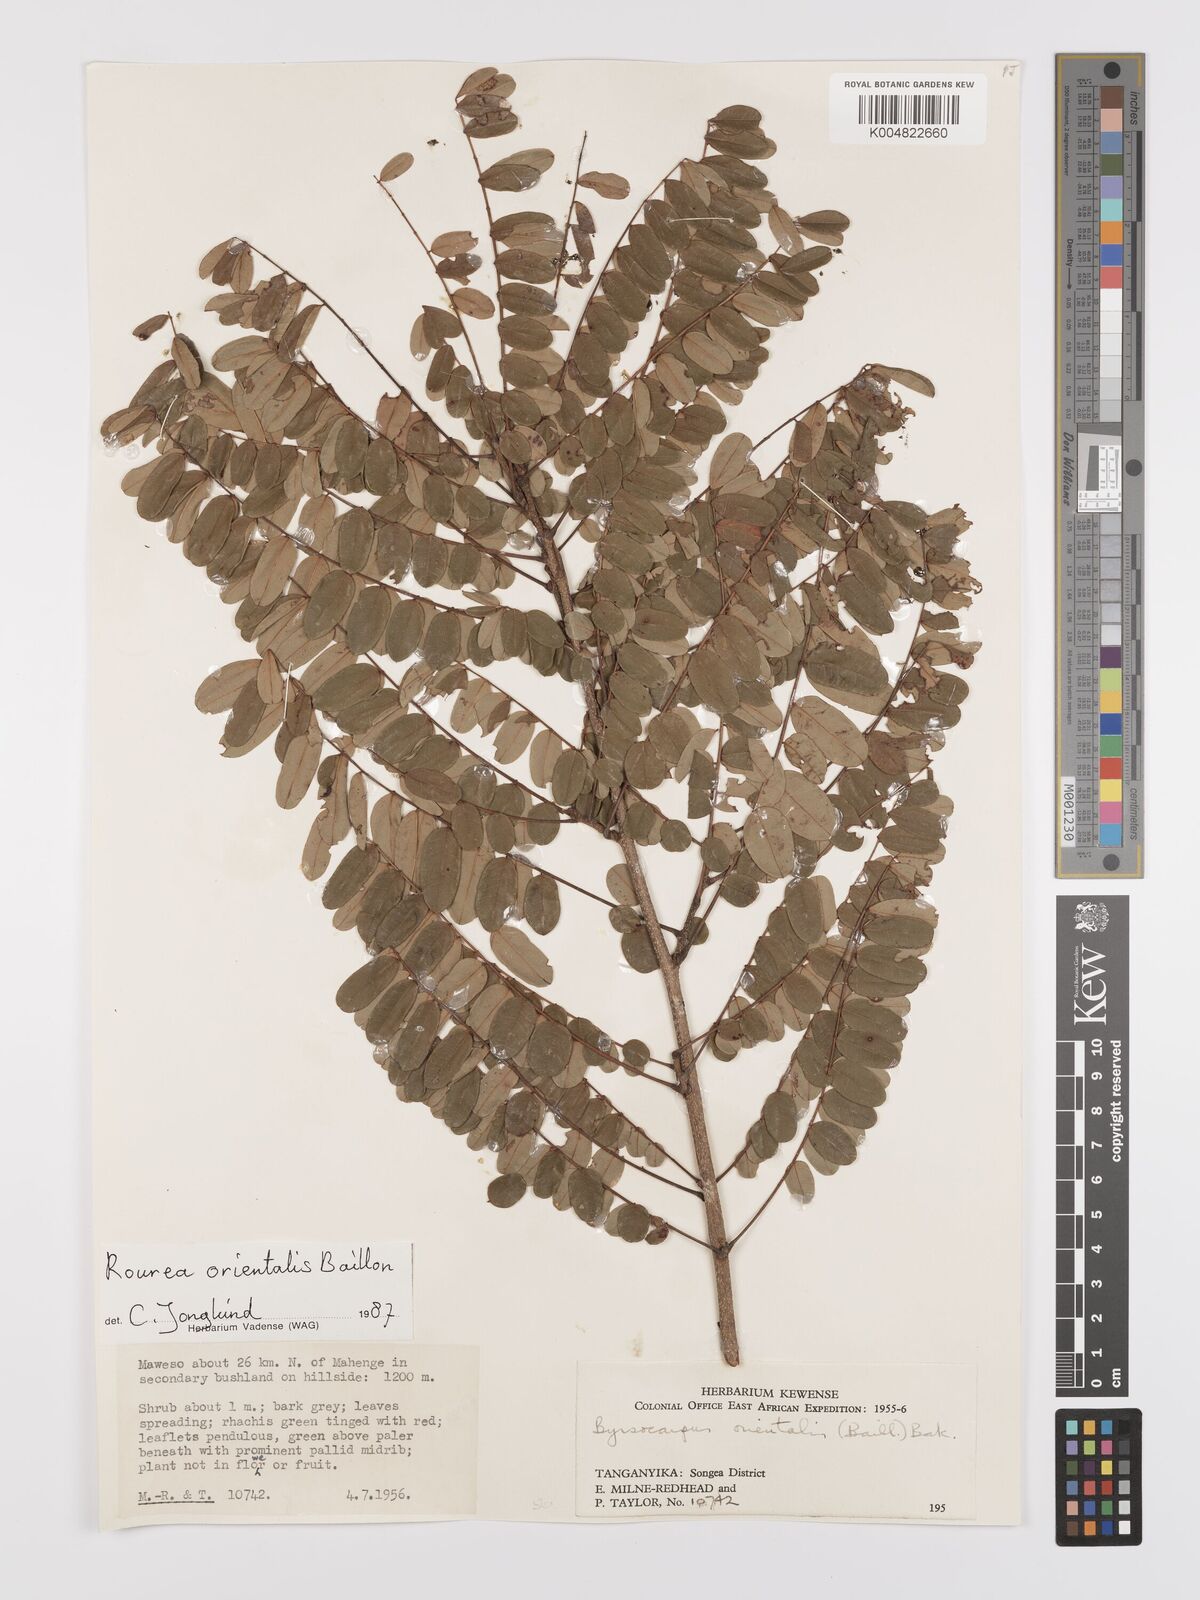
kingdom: Plantae
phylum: Tracheophyta
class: Magnoliopsida
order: Oxalidales
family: Connaraceae
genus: Rourea
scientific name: Rourea orientalis
